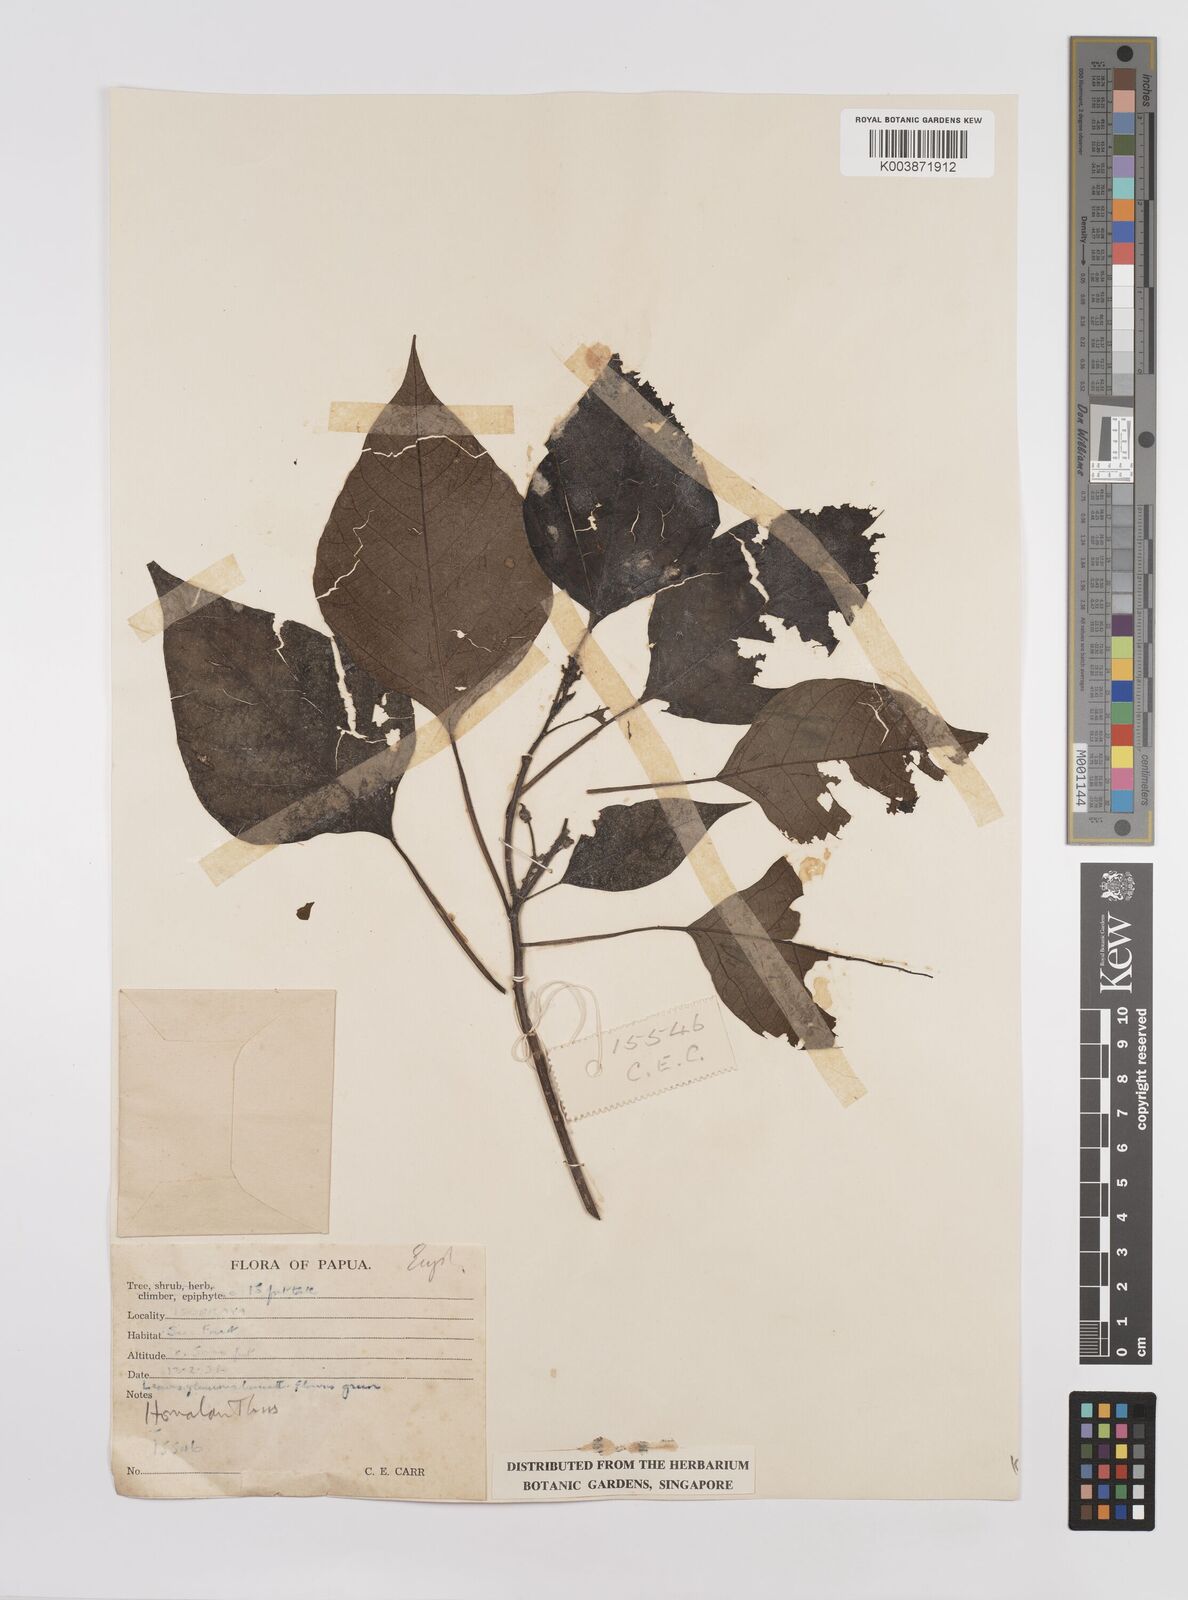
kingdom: Plantae
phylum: Tracheophyta
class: Magnoliopsida
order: Malpighiales
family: Euphorbiaceae
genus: Homalanthus
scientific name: Homalanthus novoguineensis
